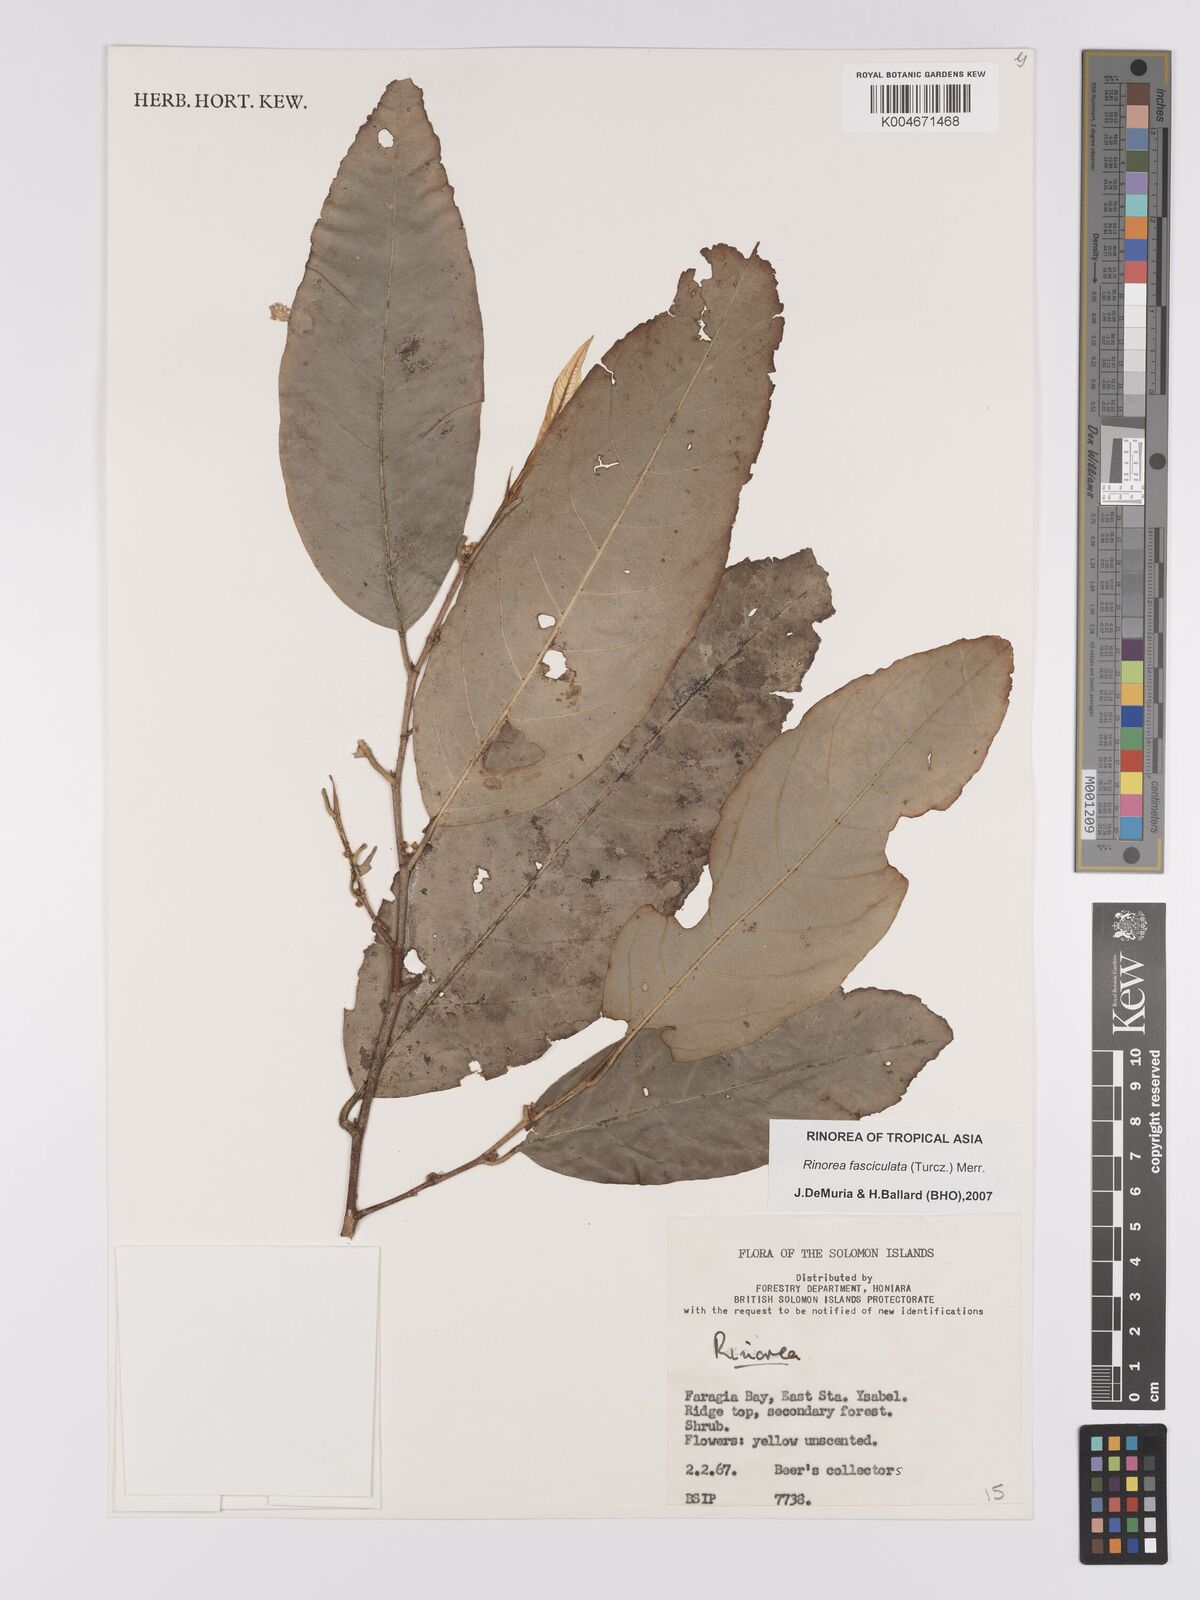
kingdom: Plantae
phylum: Tracheophyta
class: Magnoliopsida
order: Malpighiales
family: Violaceae
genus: Rinorea
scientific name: Rinorea bengalensis
